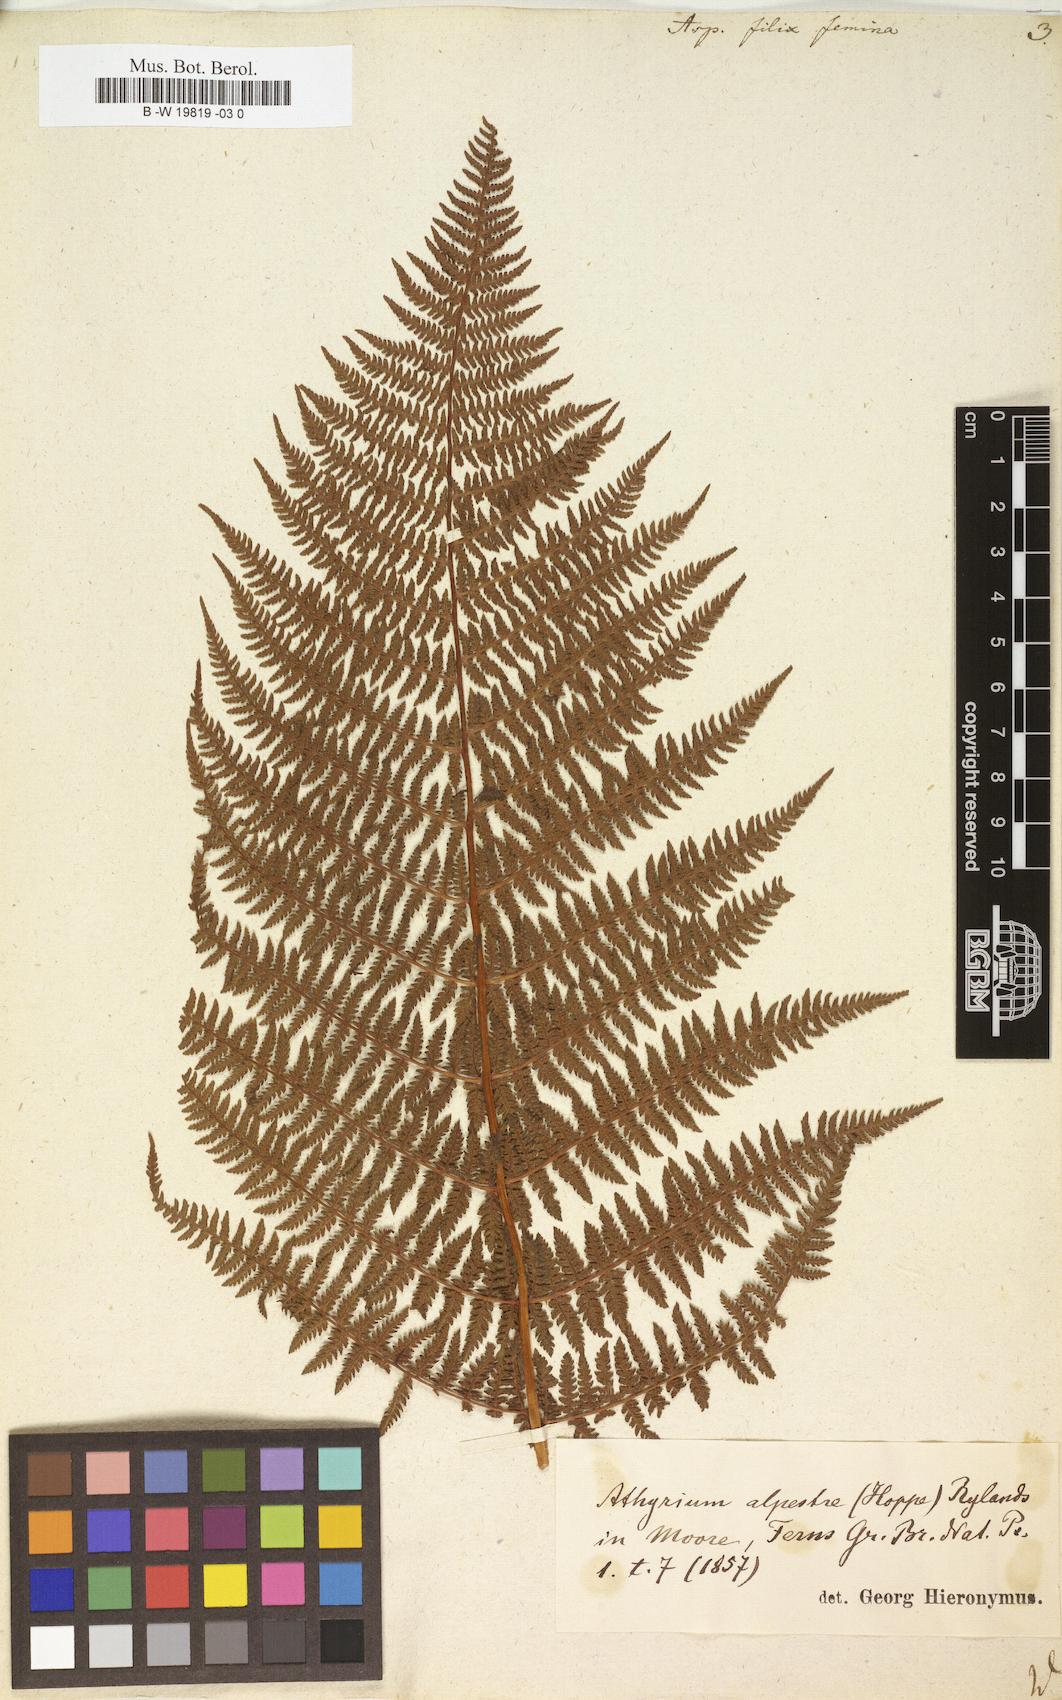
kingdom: Plantae
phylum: Tracheophyta
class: Polypodiopsida
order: Polypodiales
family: Athyriaceae
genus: Athyrium
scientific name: Athyrium filix-femina
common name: Lady fern
